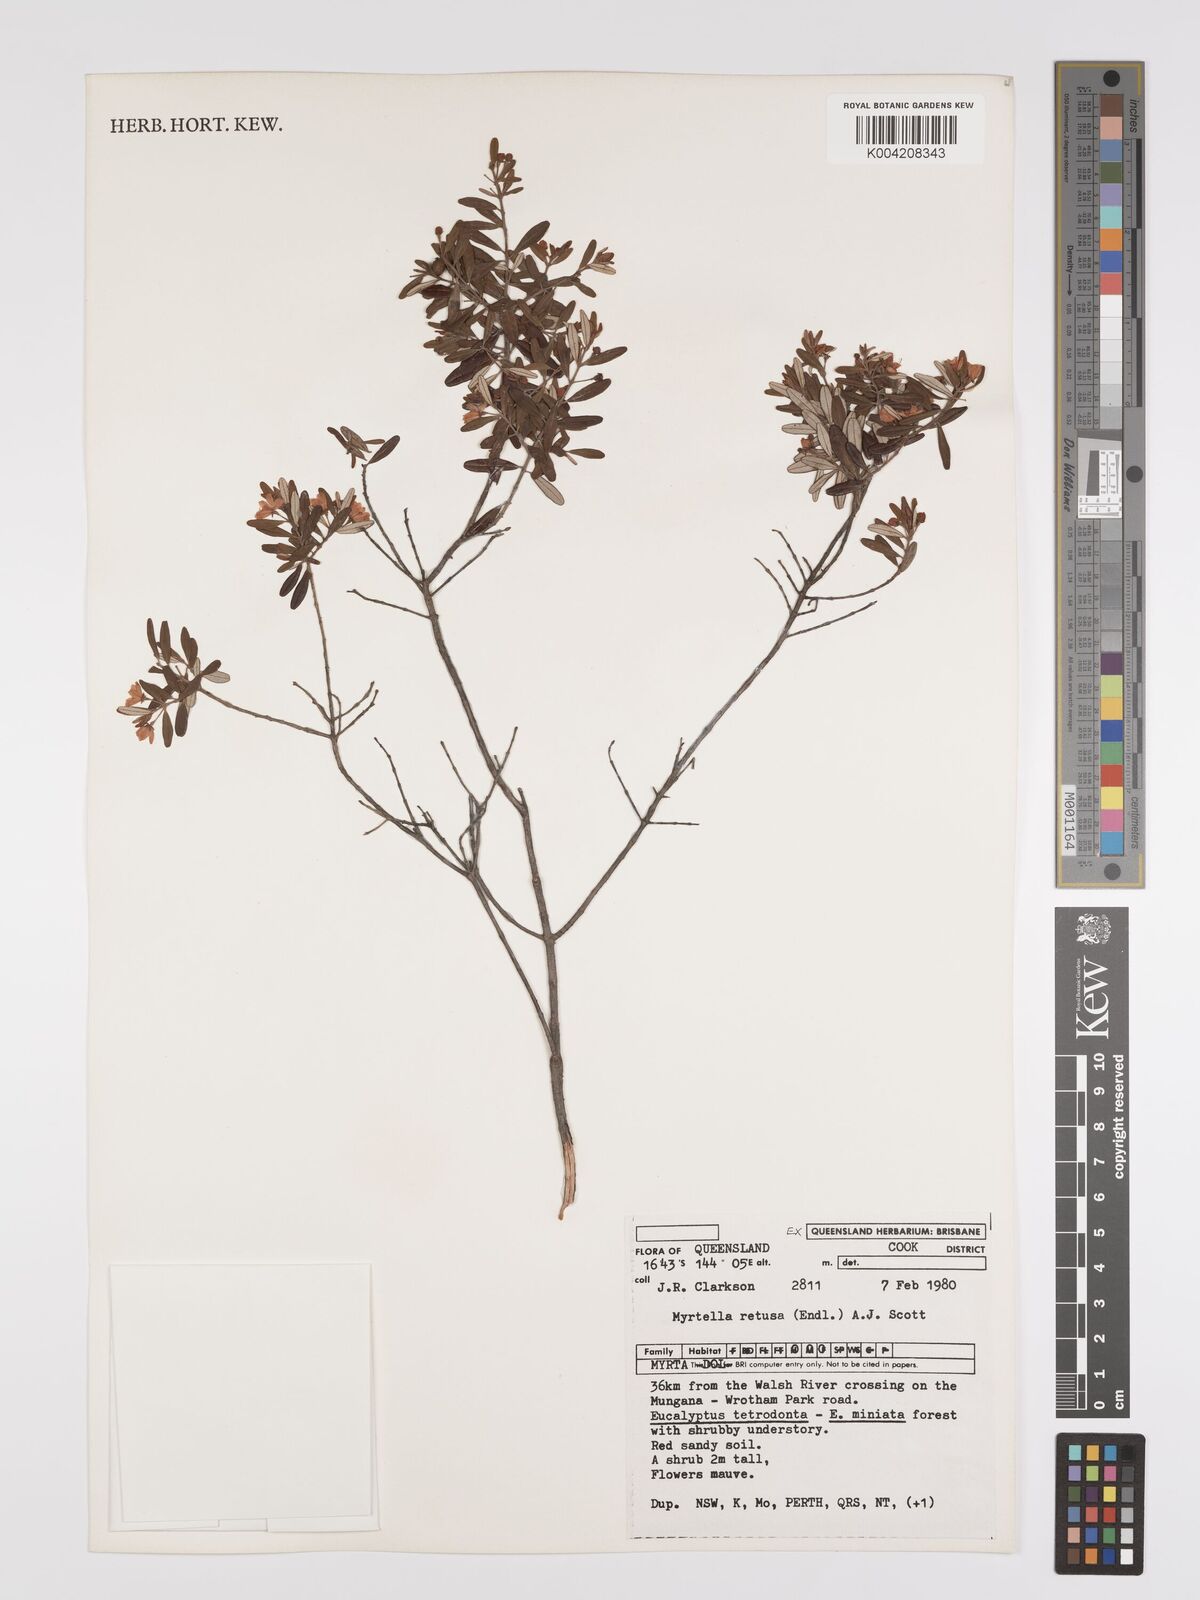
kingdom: Plantae
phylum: Tracheophyta
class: Magnoliopsida
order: Myrtales
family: Myrtaceae
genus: Lithomyrtus
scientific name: Lithomyrtus retusa
